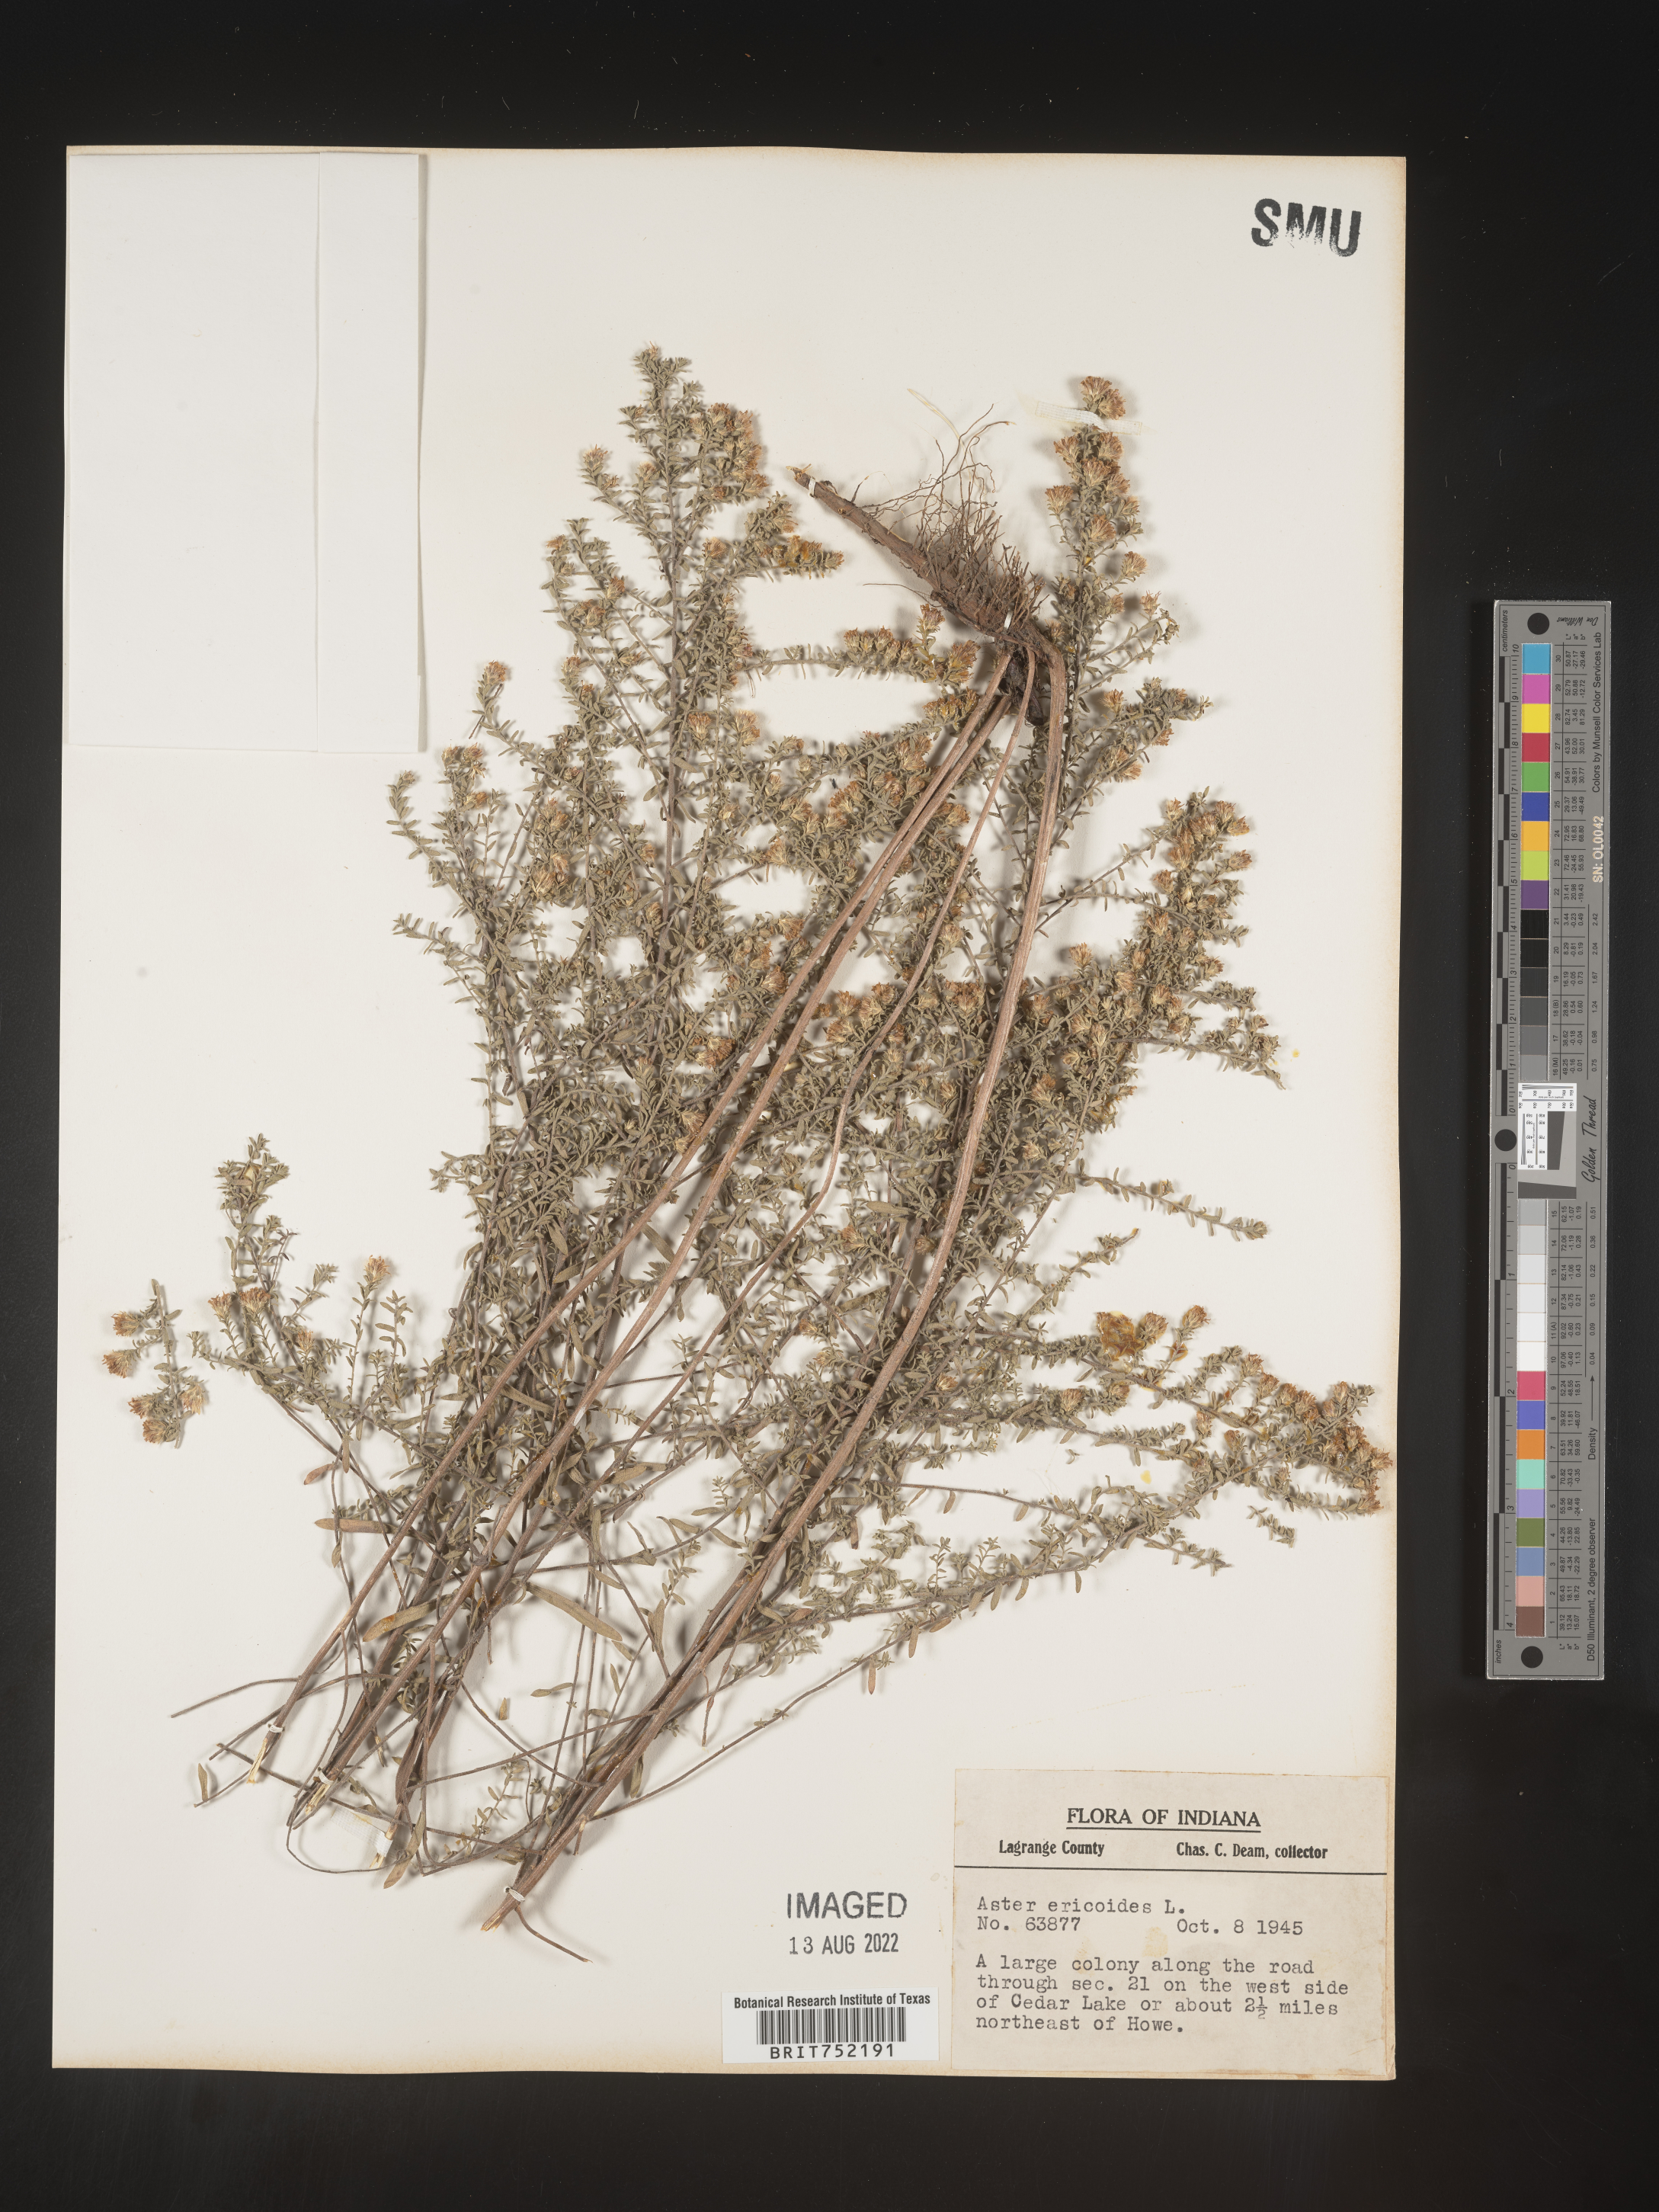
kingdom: Plantae
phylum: Tracheophyta
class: Magnoliopsida
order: Asterales
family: Asteraceae
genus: Symphyotrichum
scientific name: Symphyotrichum ericoides
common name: Heath aster
